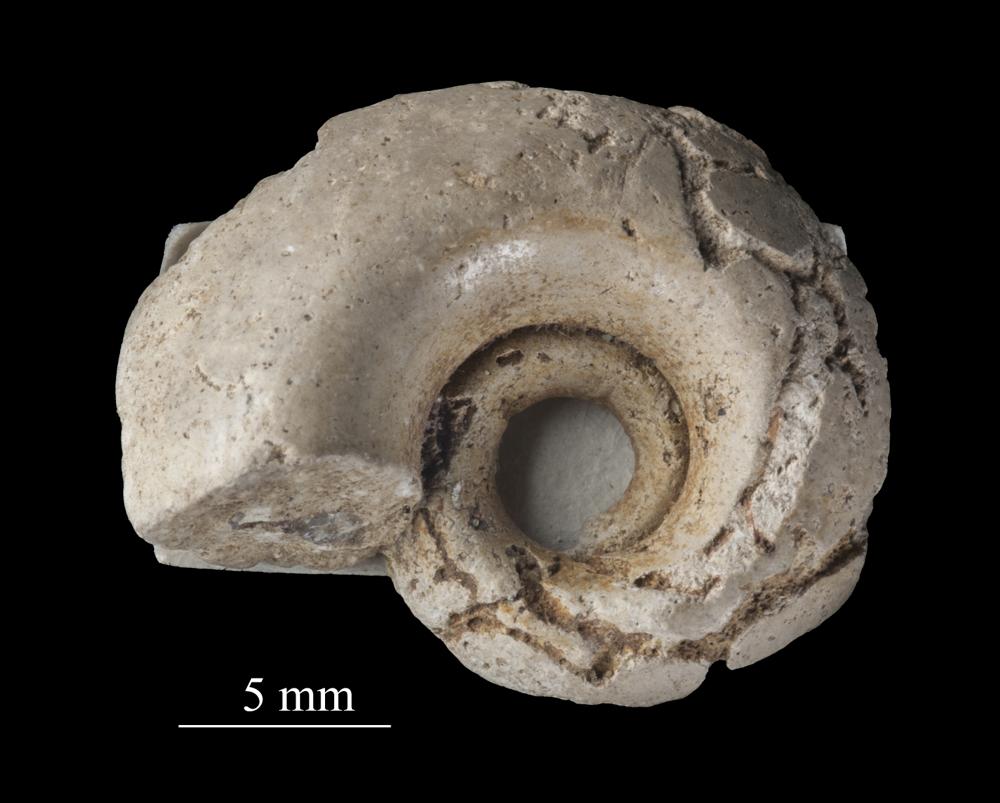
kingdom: Animalia
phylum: Mollusca
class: Cephalopoda
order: Goniatitida
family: Goniatitidae
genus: Goniatites
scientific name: Goniatites silurica
